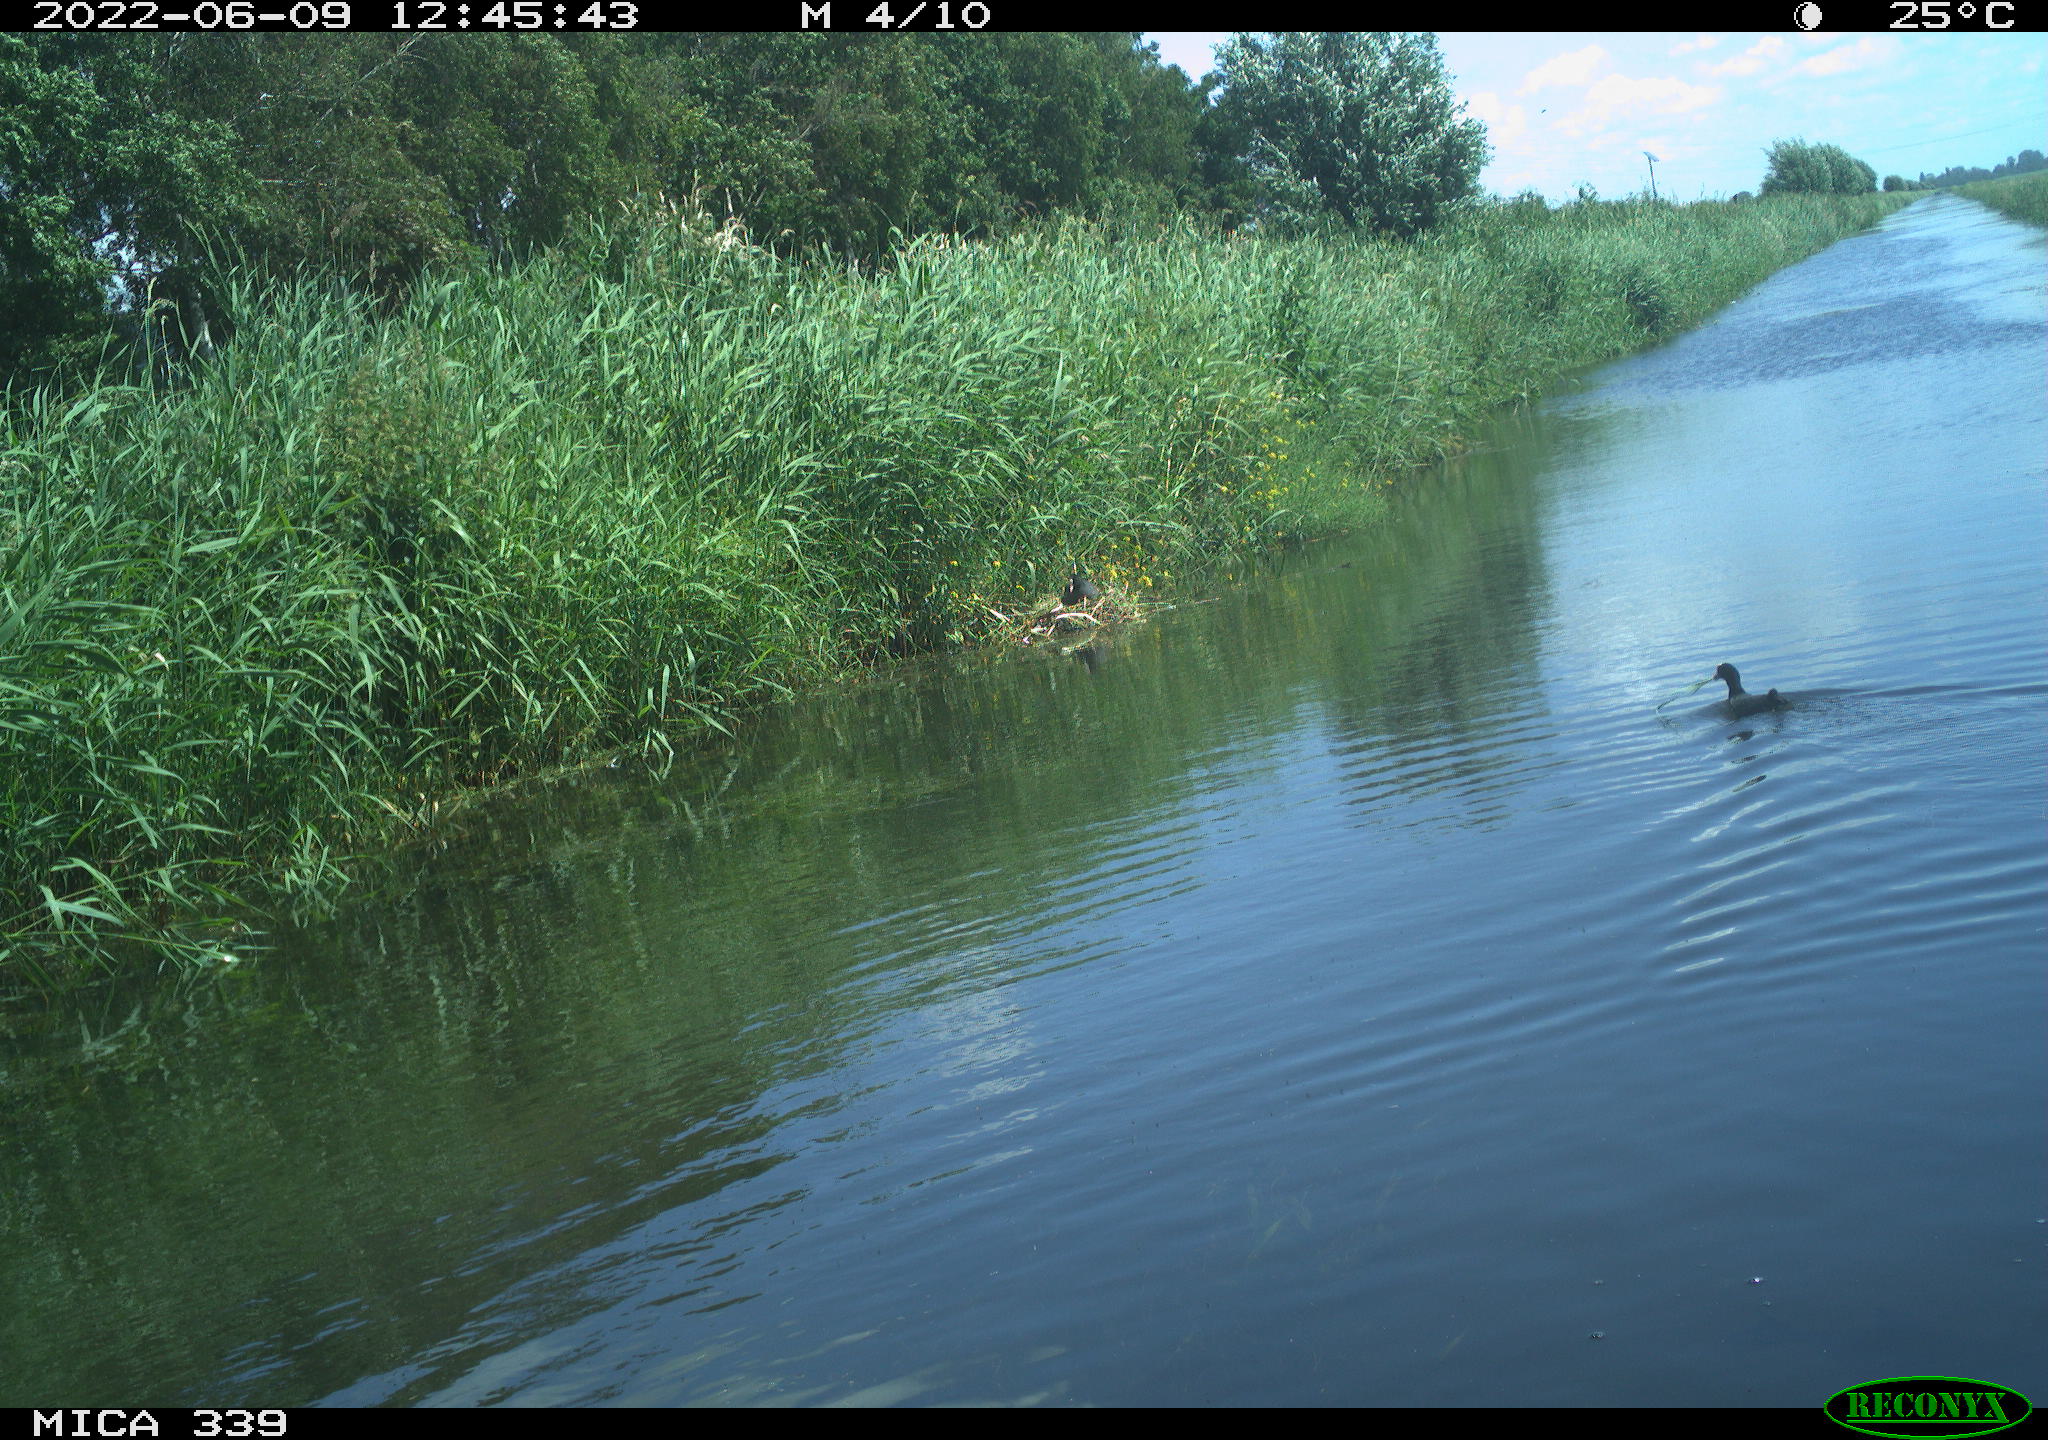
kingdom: Animalia
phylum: Chordata
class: Aves
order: Gruiformes
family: Rallidae
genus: Fulica
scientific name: Fulica atra
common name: Eurasian coot
